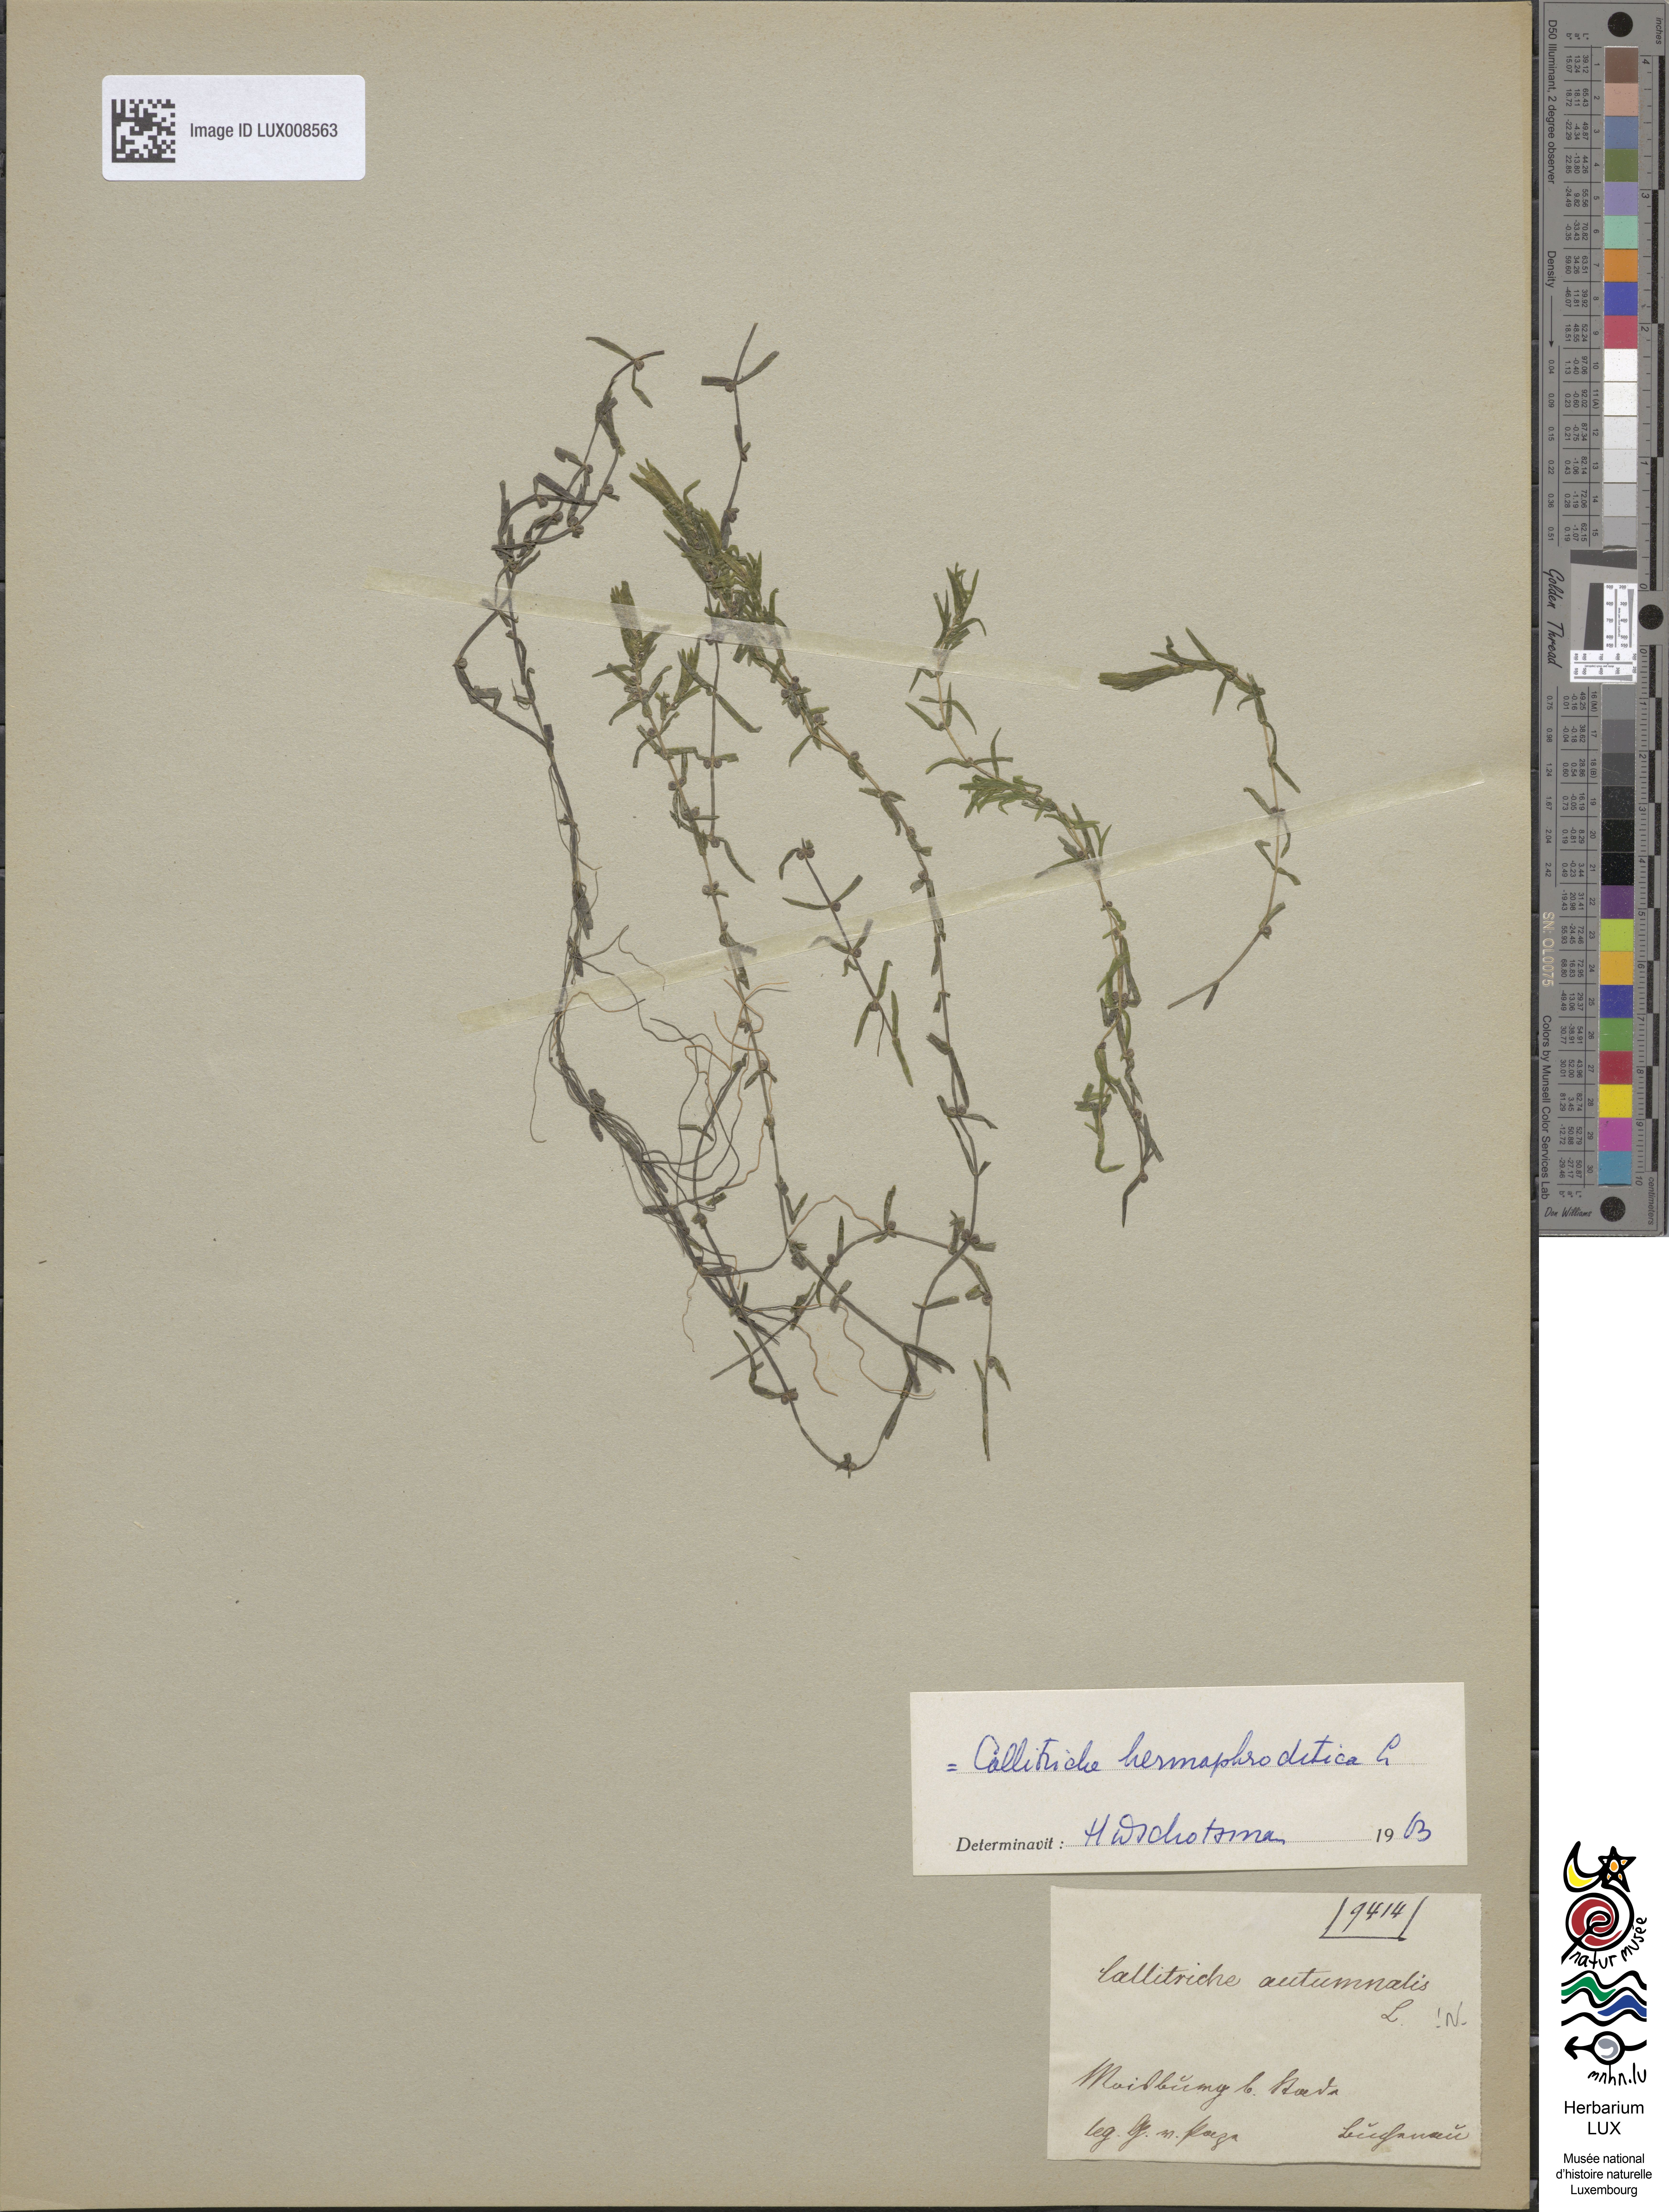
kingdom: Plantae
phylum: Tracheophyta
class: Magnoliopsida
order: Lamiales
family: Plantaginaceae
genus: Callitriche
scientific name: Callitriche hermaphroditica
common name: Autumnal water-starwort
